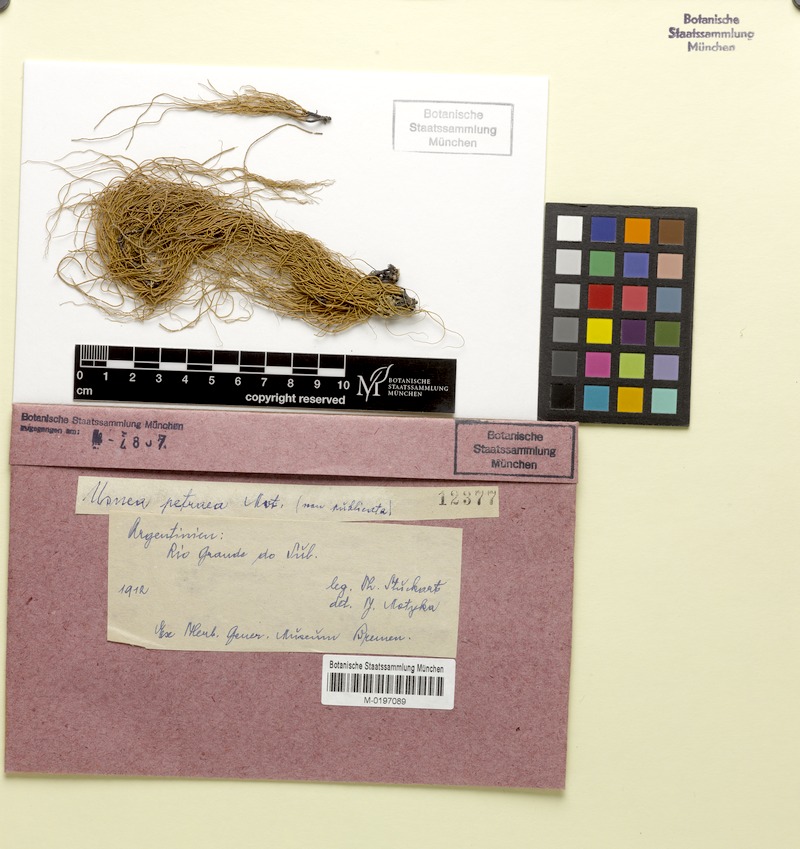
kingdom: Fungi
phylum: Ascomycota
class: Lecanoromycetes
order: Lecanorales
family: Parmeliaceae
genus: Usnea
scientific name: Usnea
